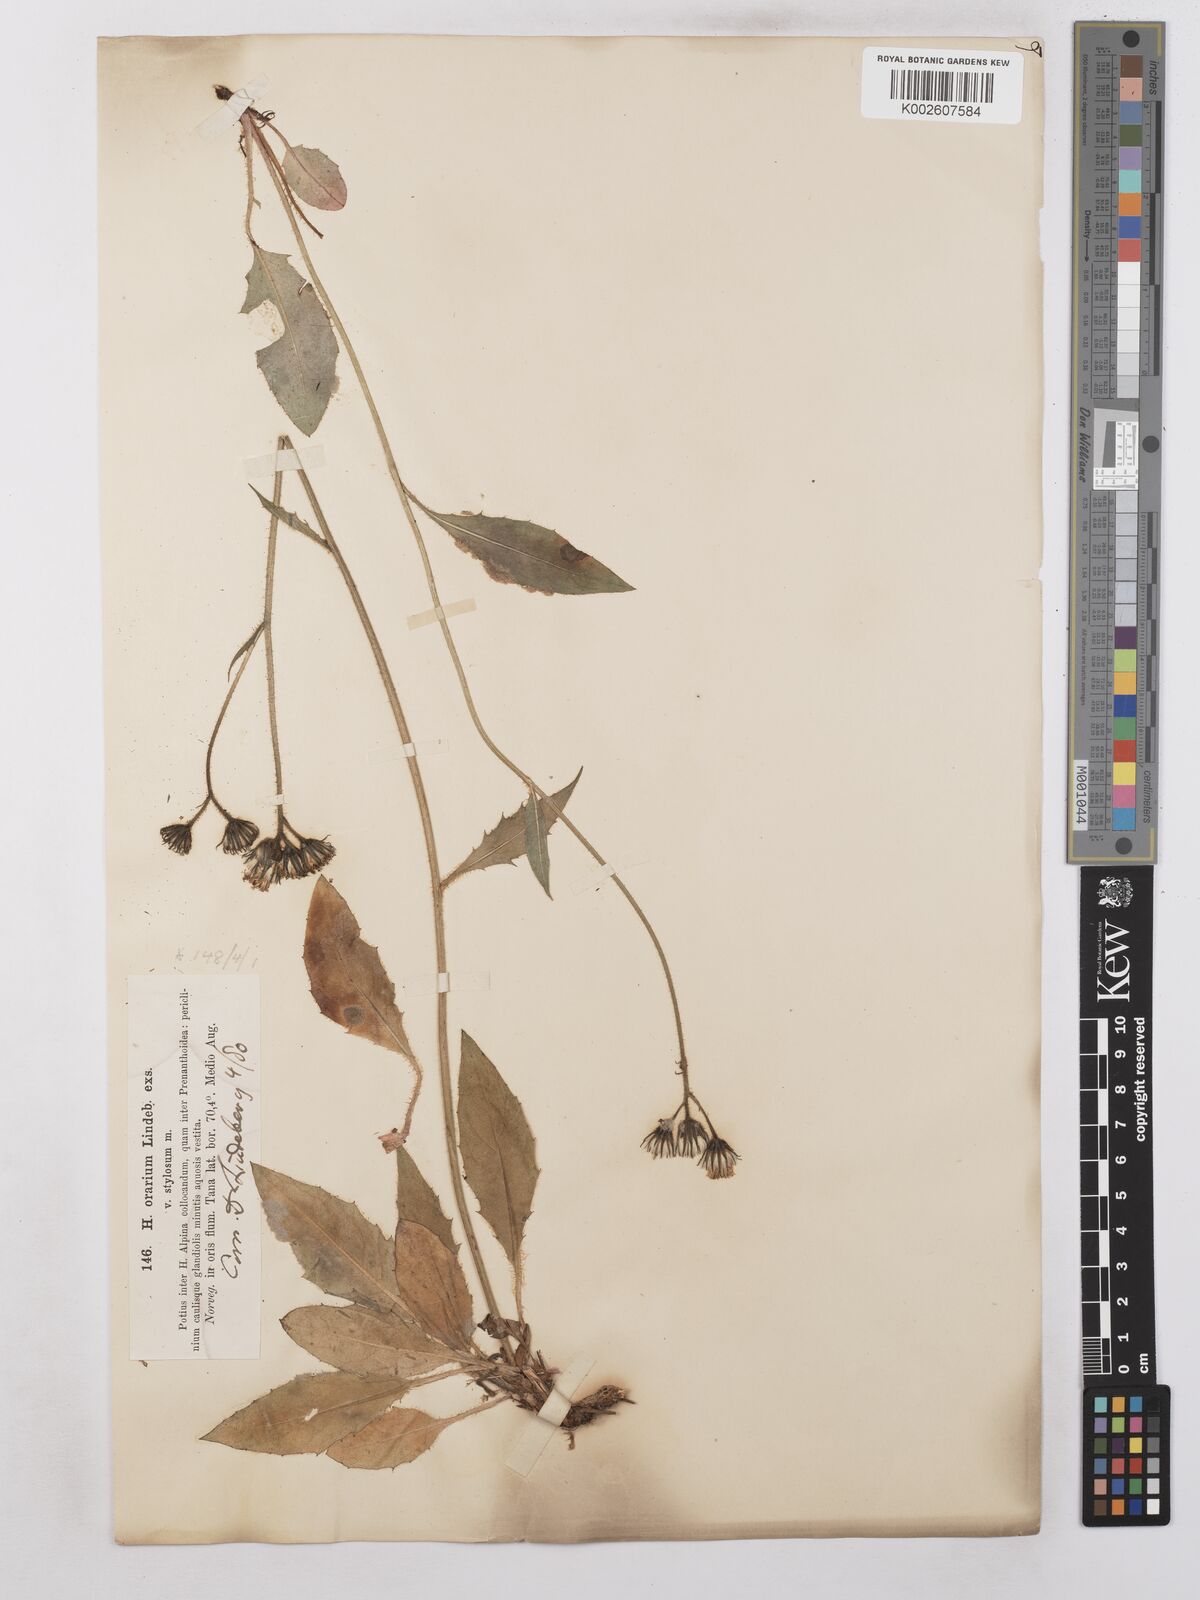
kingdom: Plantae
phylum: Tracheophyta
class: Magnoliopsida
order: Asterales
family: Asteraceae
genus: Hieracium
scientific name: Hieracium subramosum
